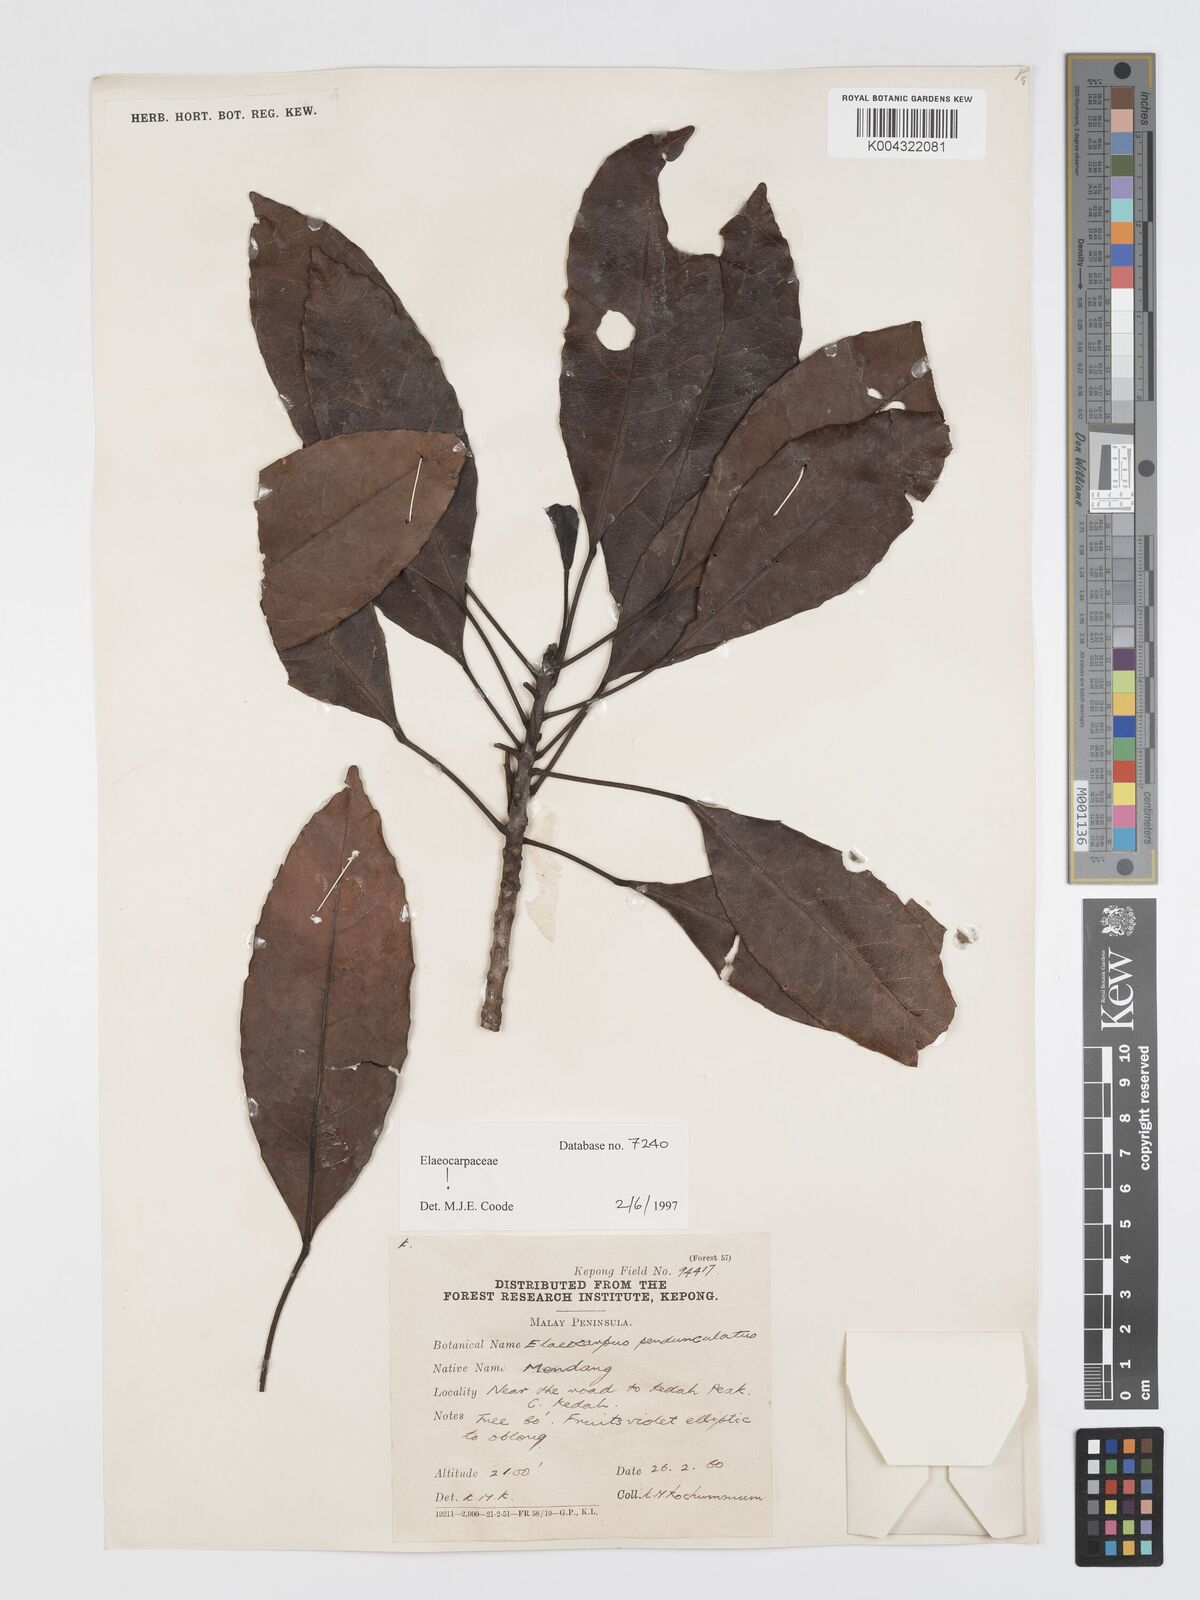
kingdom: Plantae
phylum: Tracheophyta
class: Magnoliopsida
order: Oxalidales
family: Elaeocarpaceae
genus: Elaeocarpus
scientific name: Elaeocarpus
